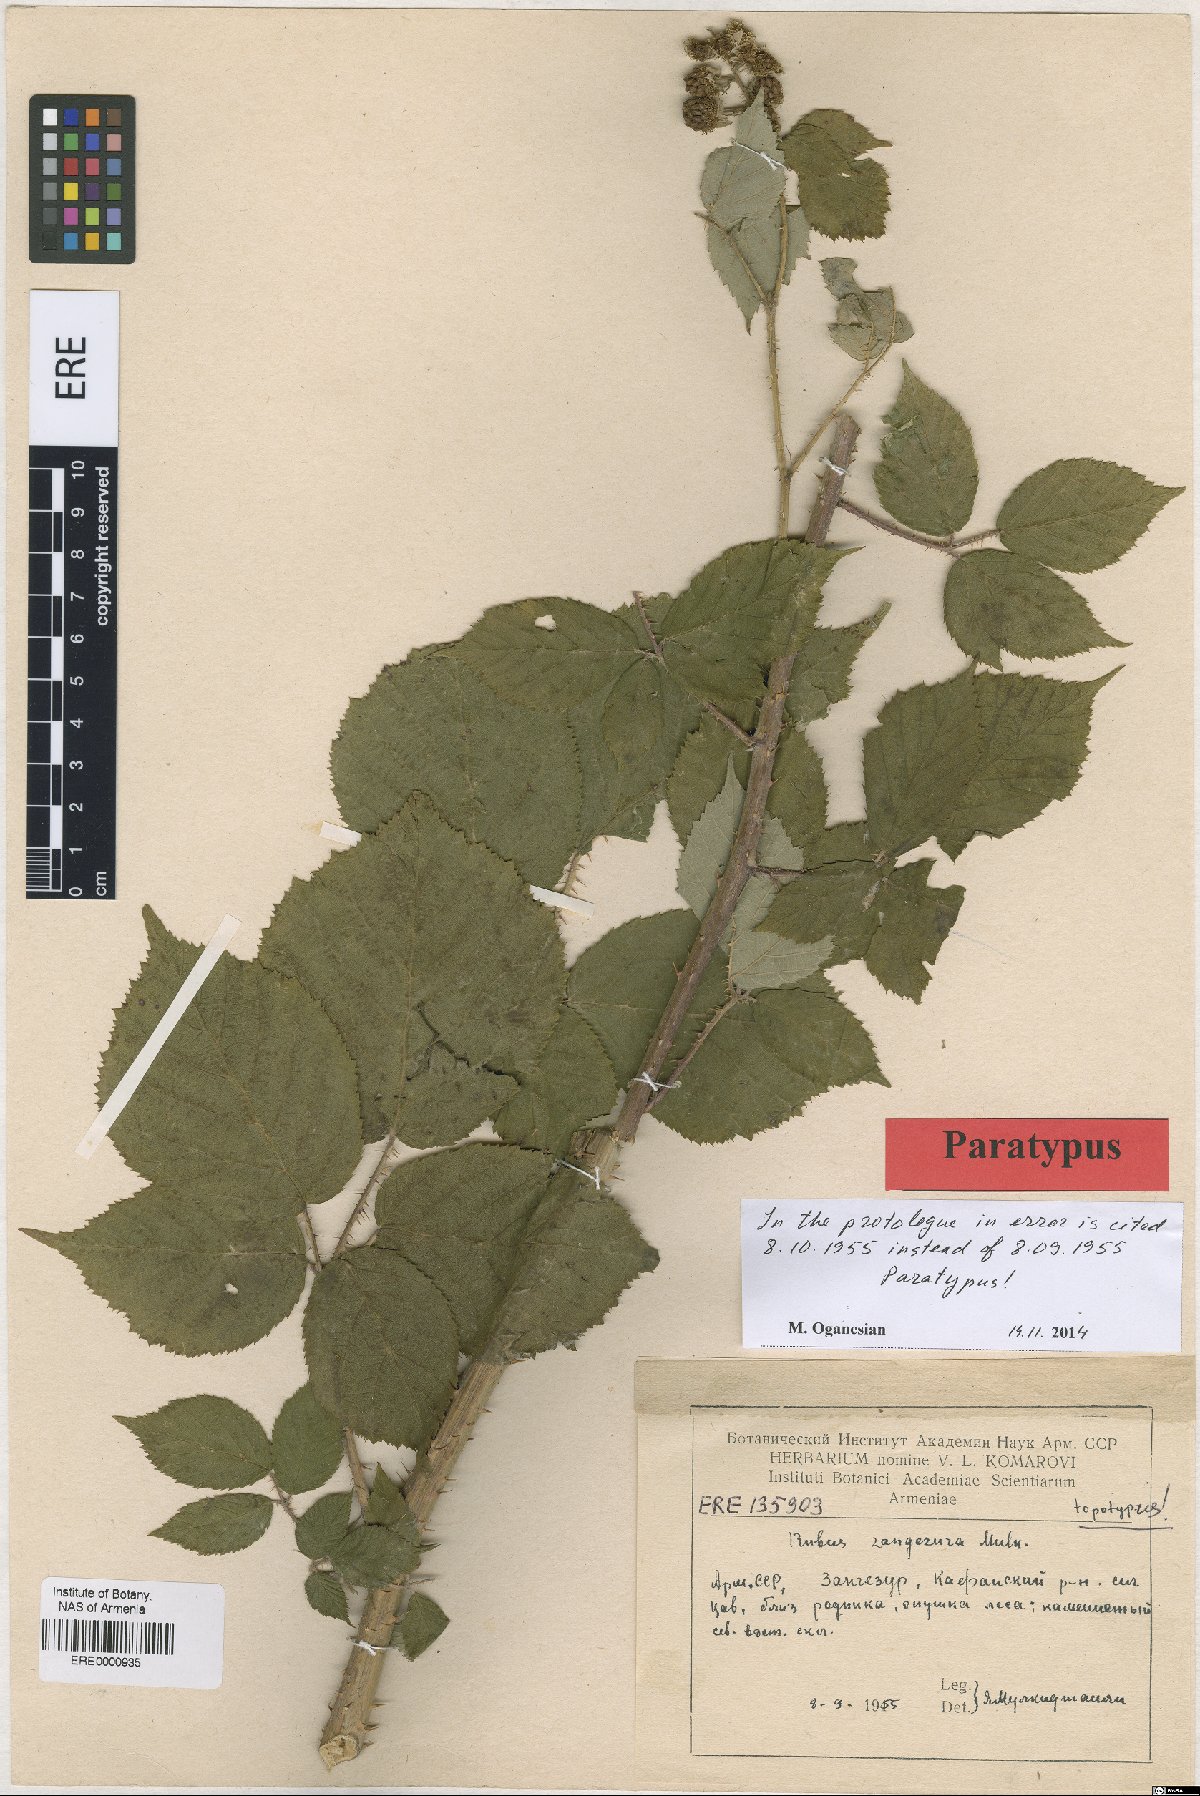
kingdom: Plantae
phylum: Tracheophyta
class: Magnoliopsida
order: Rosales
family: Rosaceae
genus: Rubus
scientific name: Rubus zangezurus
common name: Zangezurian blackberry
